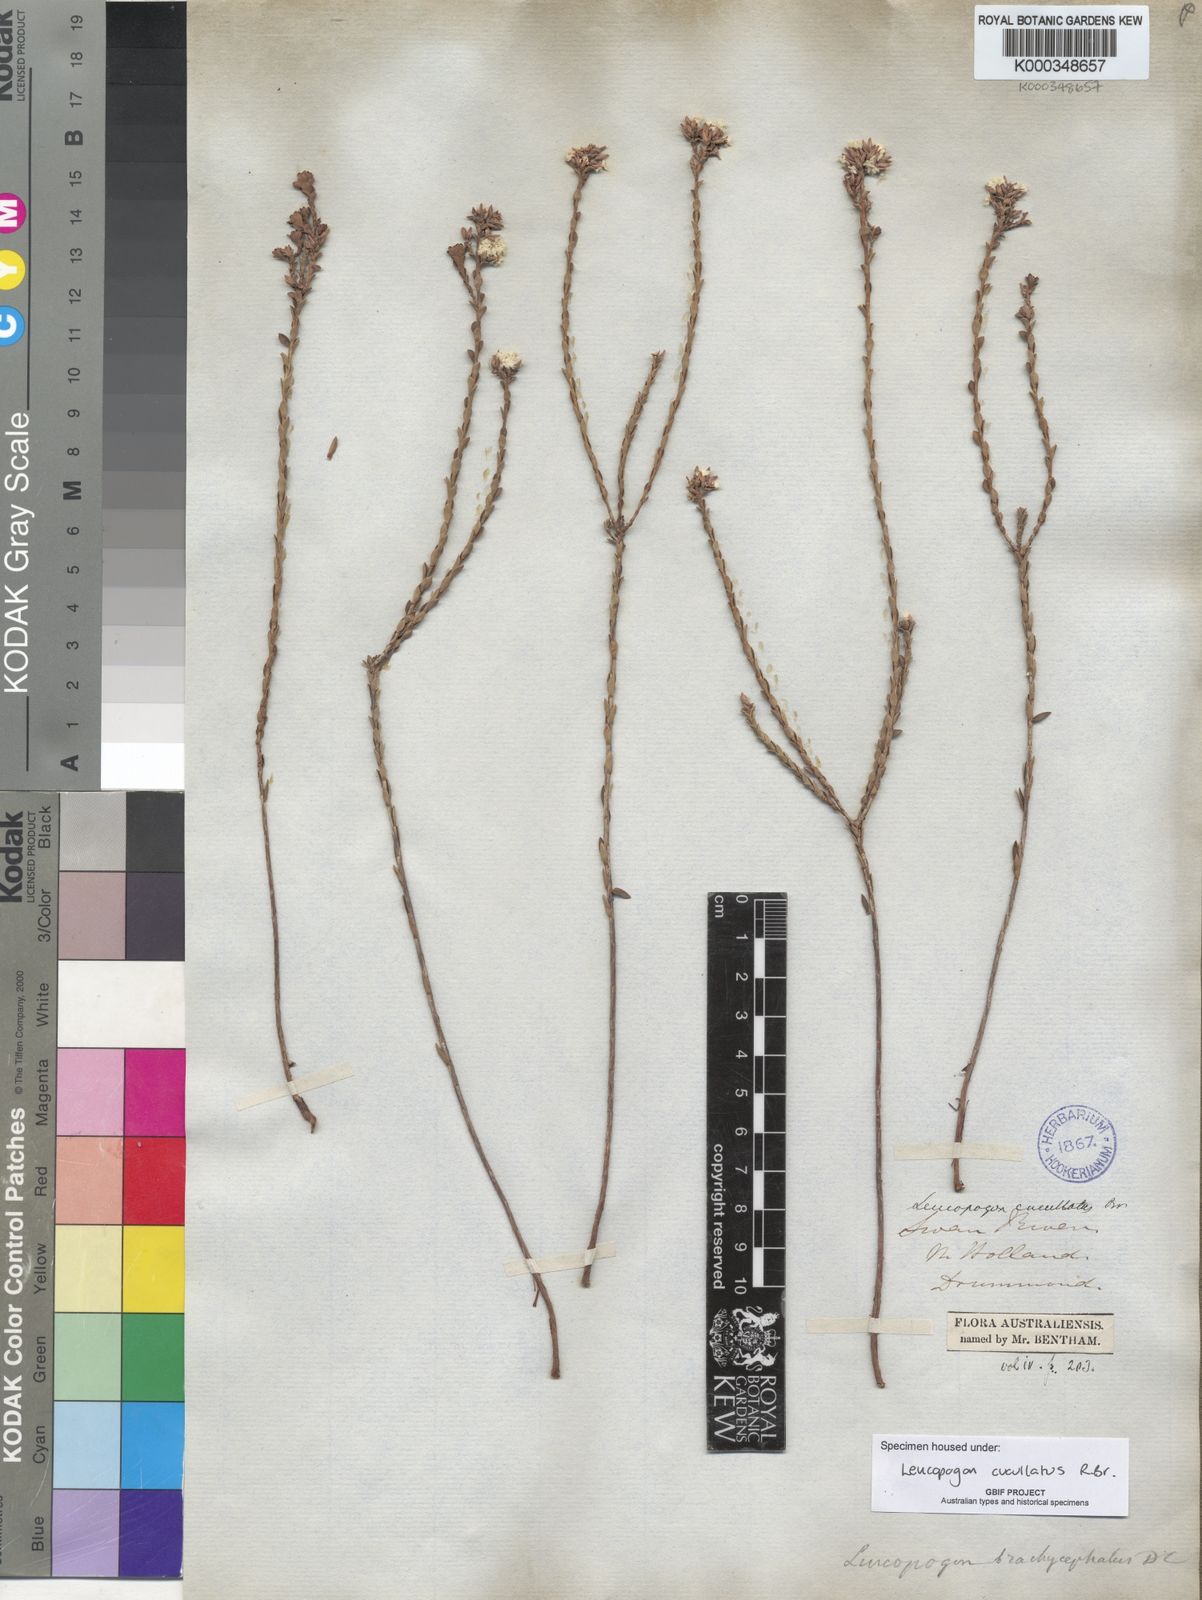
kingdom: Plantae
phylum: Tracheophyta
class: Magnoliopsida
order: Ericales
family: Ericaceae
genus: Leucopogon
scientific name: Leucopogon cucullatus
